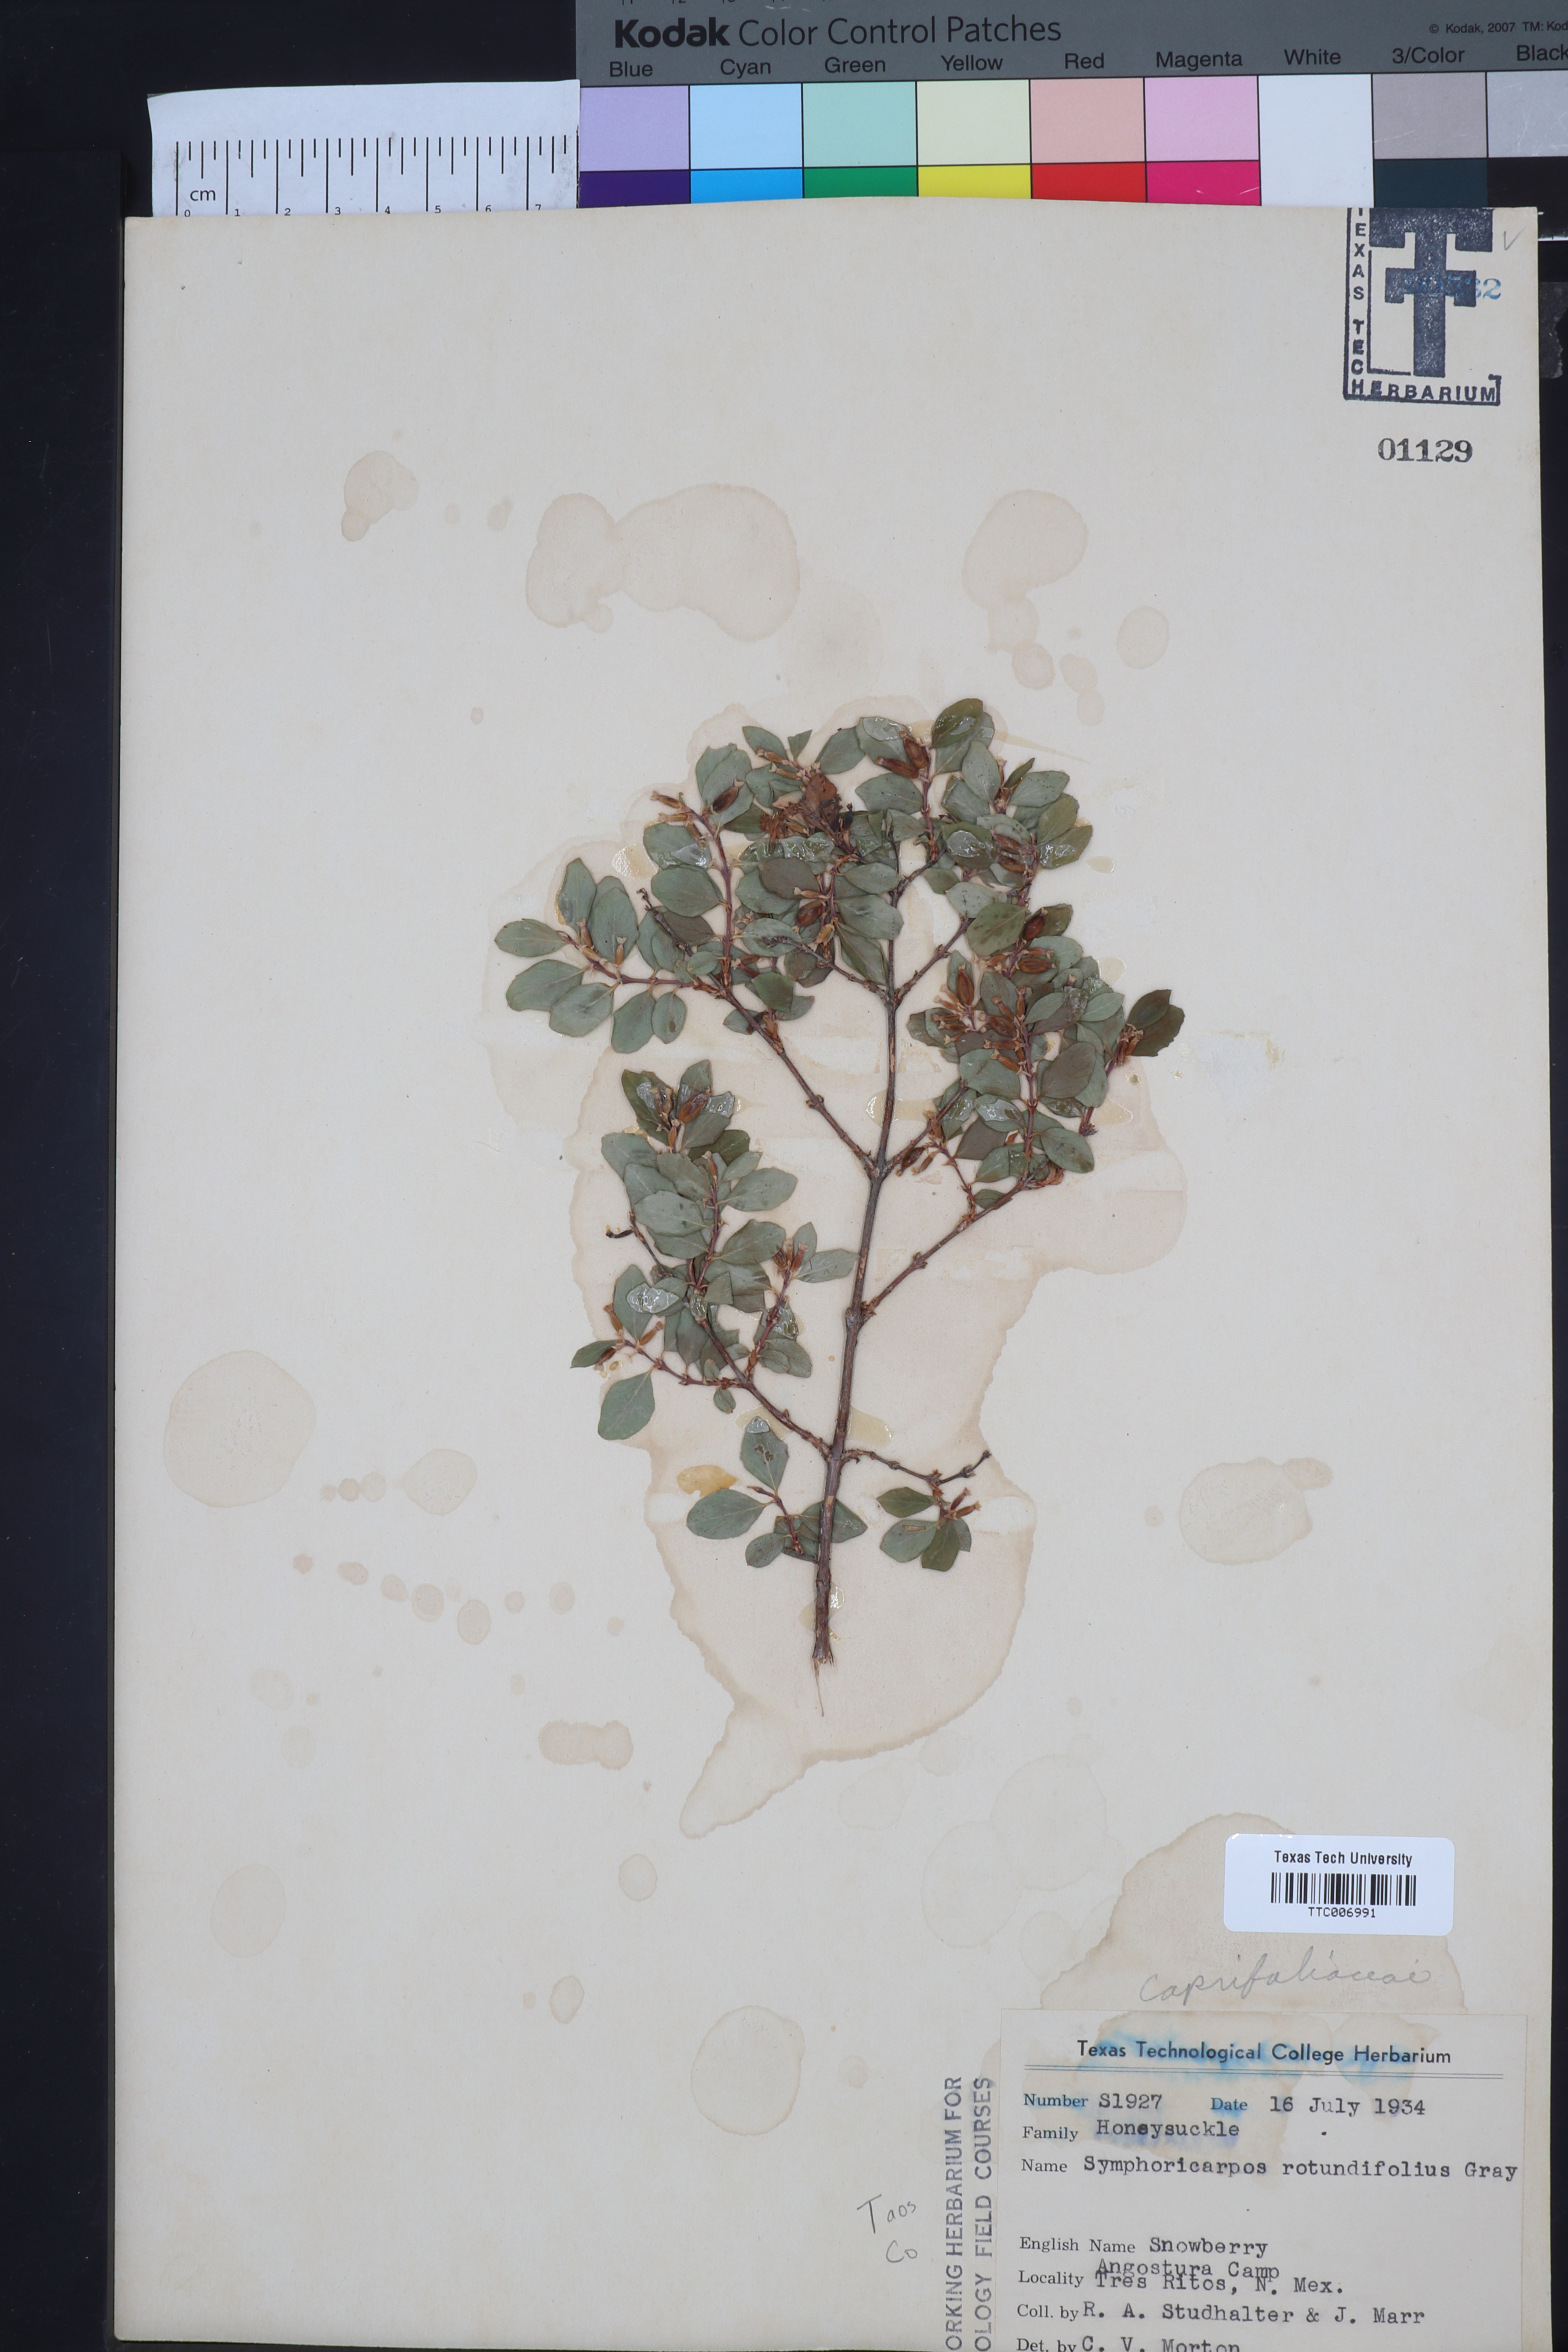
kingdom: Plantae
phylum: Tracheophyta
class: Magnoliopsida
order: Dipsacales
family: Caprifoliaceae
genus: Symphoricarpos
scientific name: Symphoricarpos rotundifolius
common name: Round-leaved snowberry
